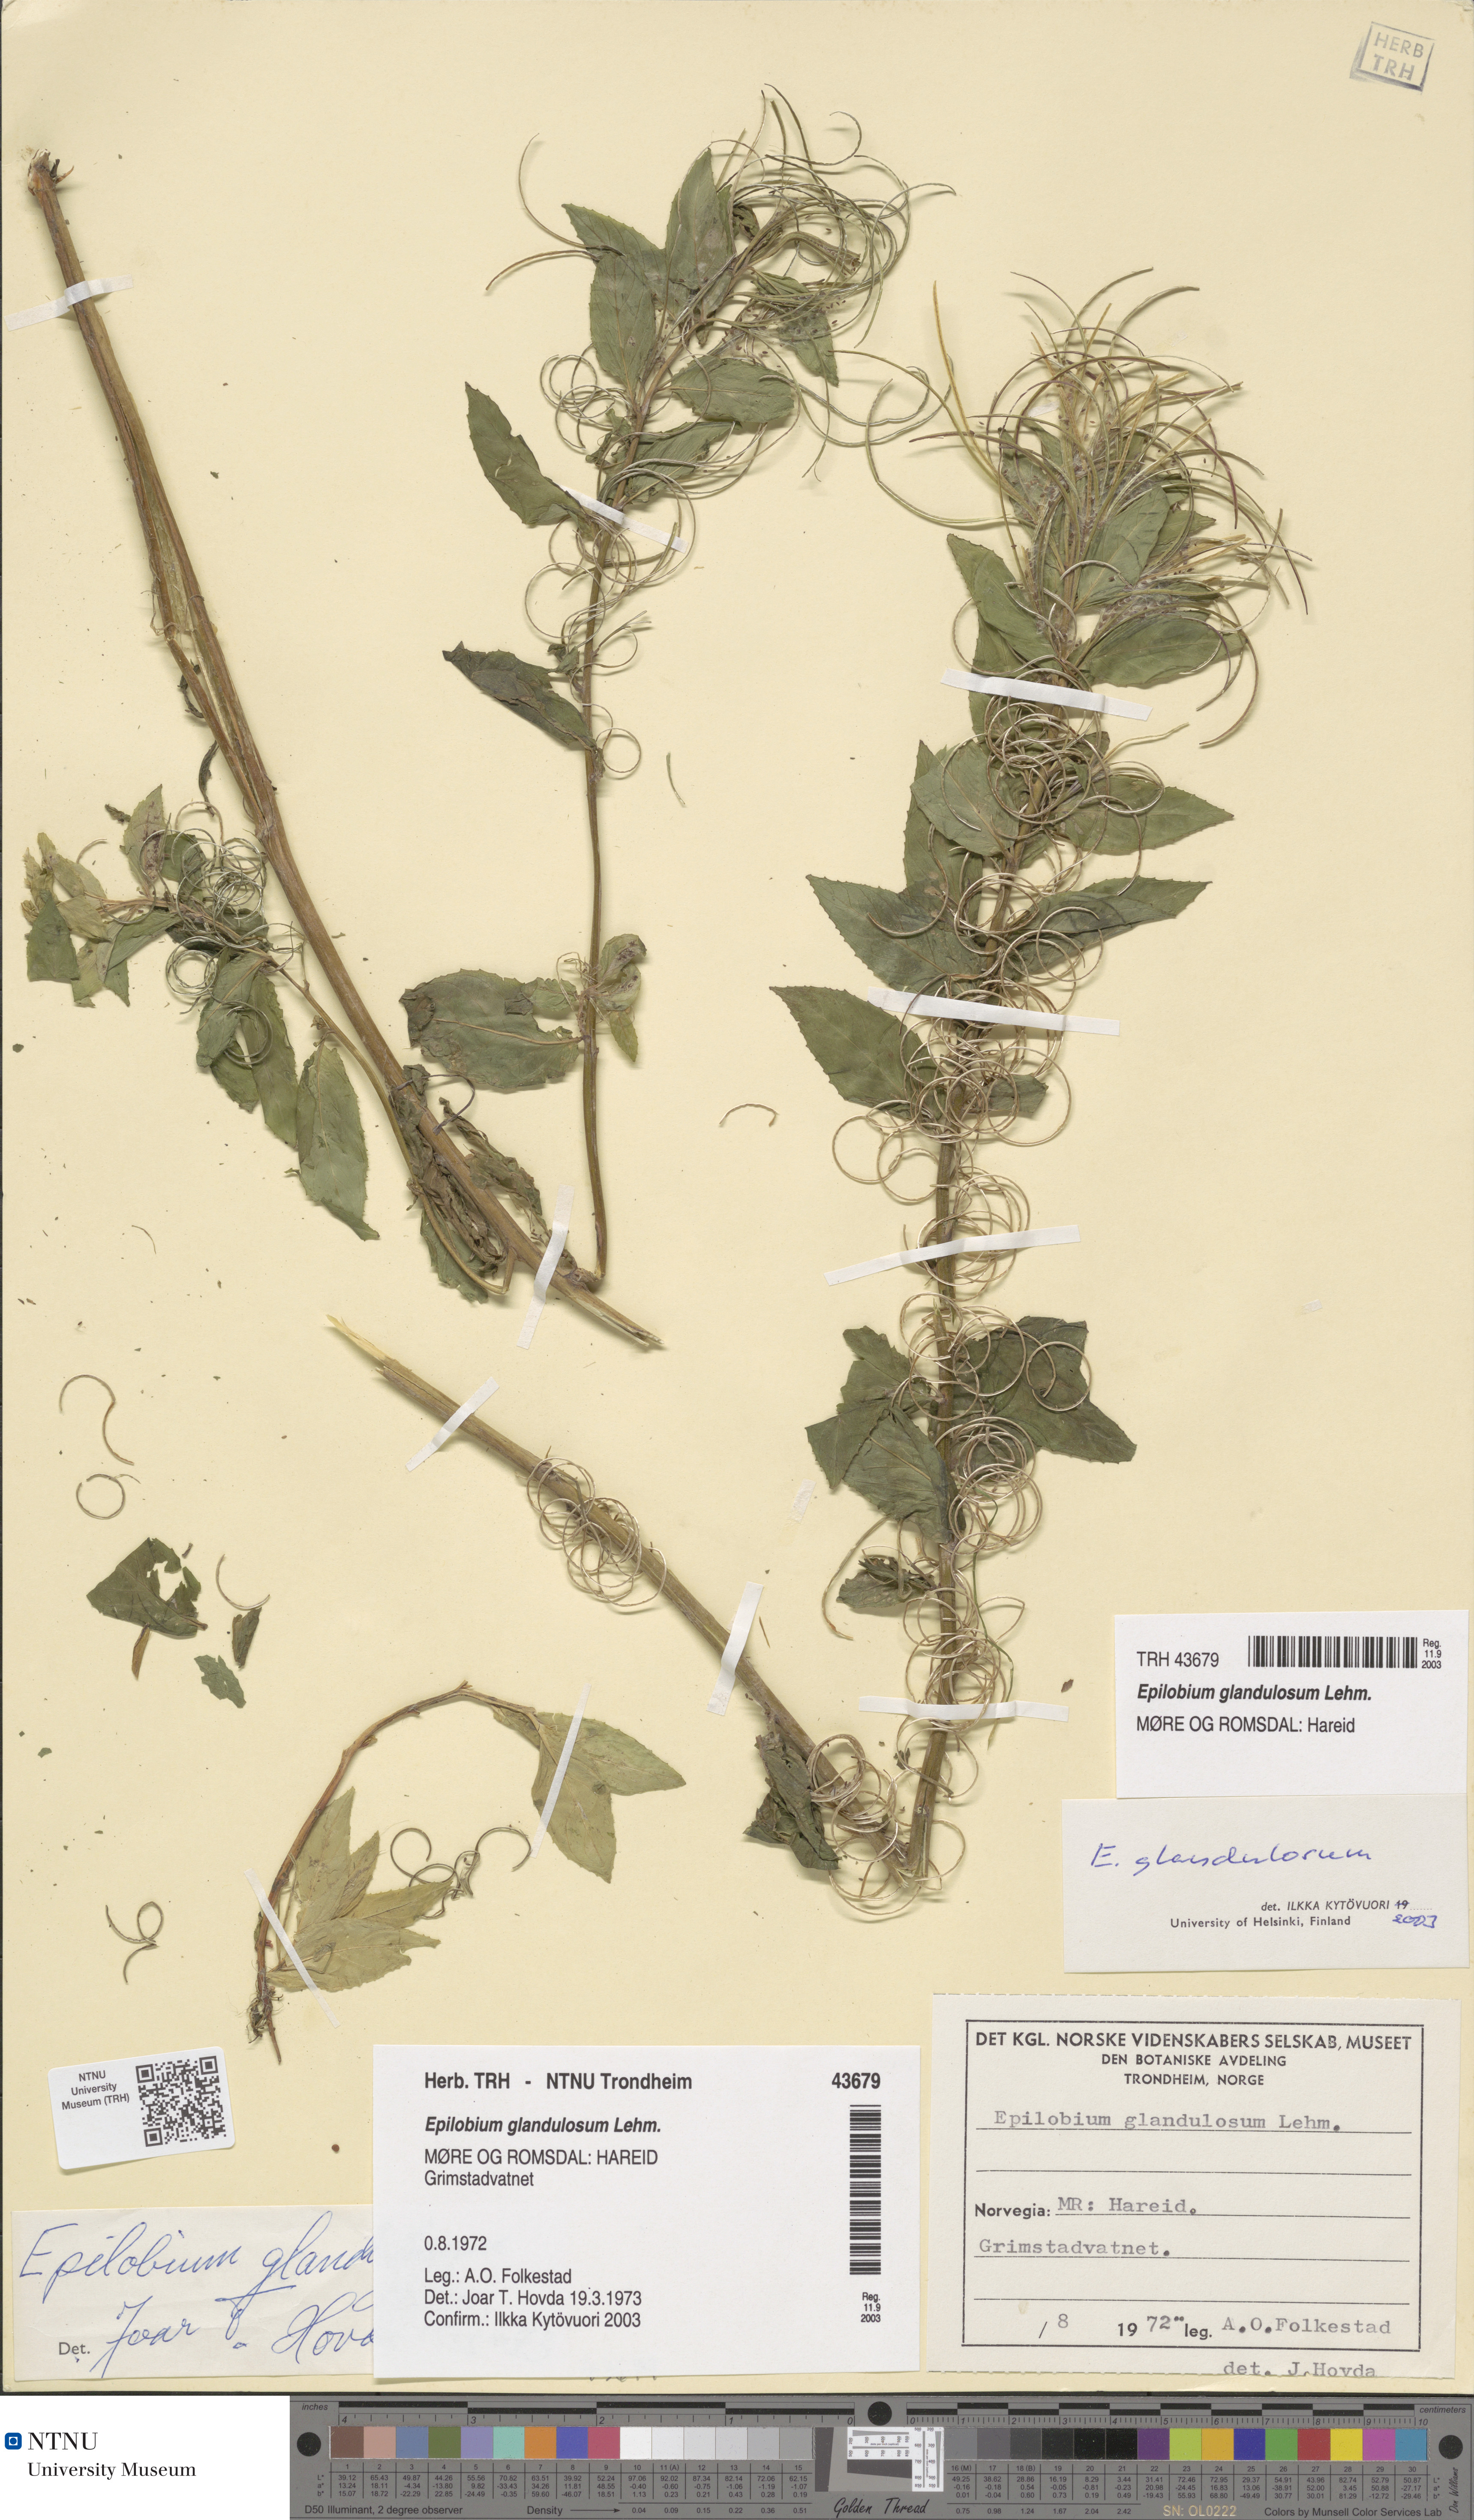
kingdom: Plantae
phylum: Tracheophyta
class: Magnoliopsida
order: Myrtales
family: Onagraceae
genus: Epilobium
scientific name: Epilobium ciliatum
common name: American willowherb
